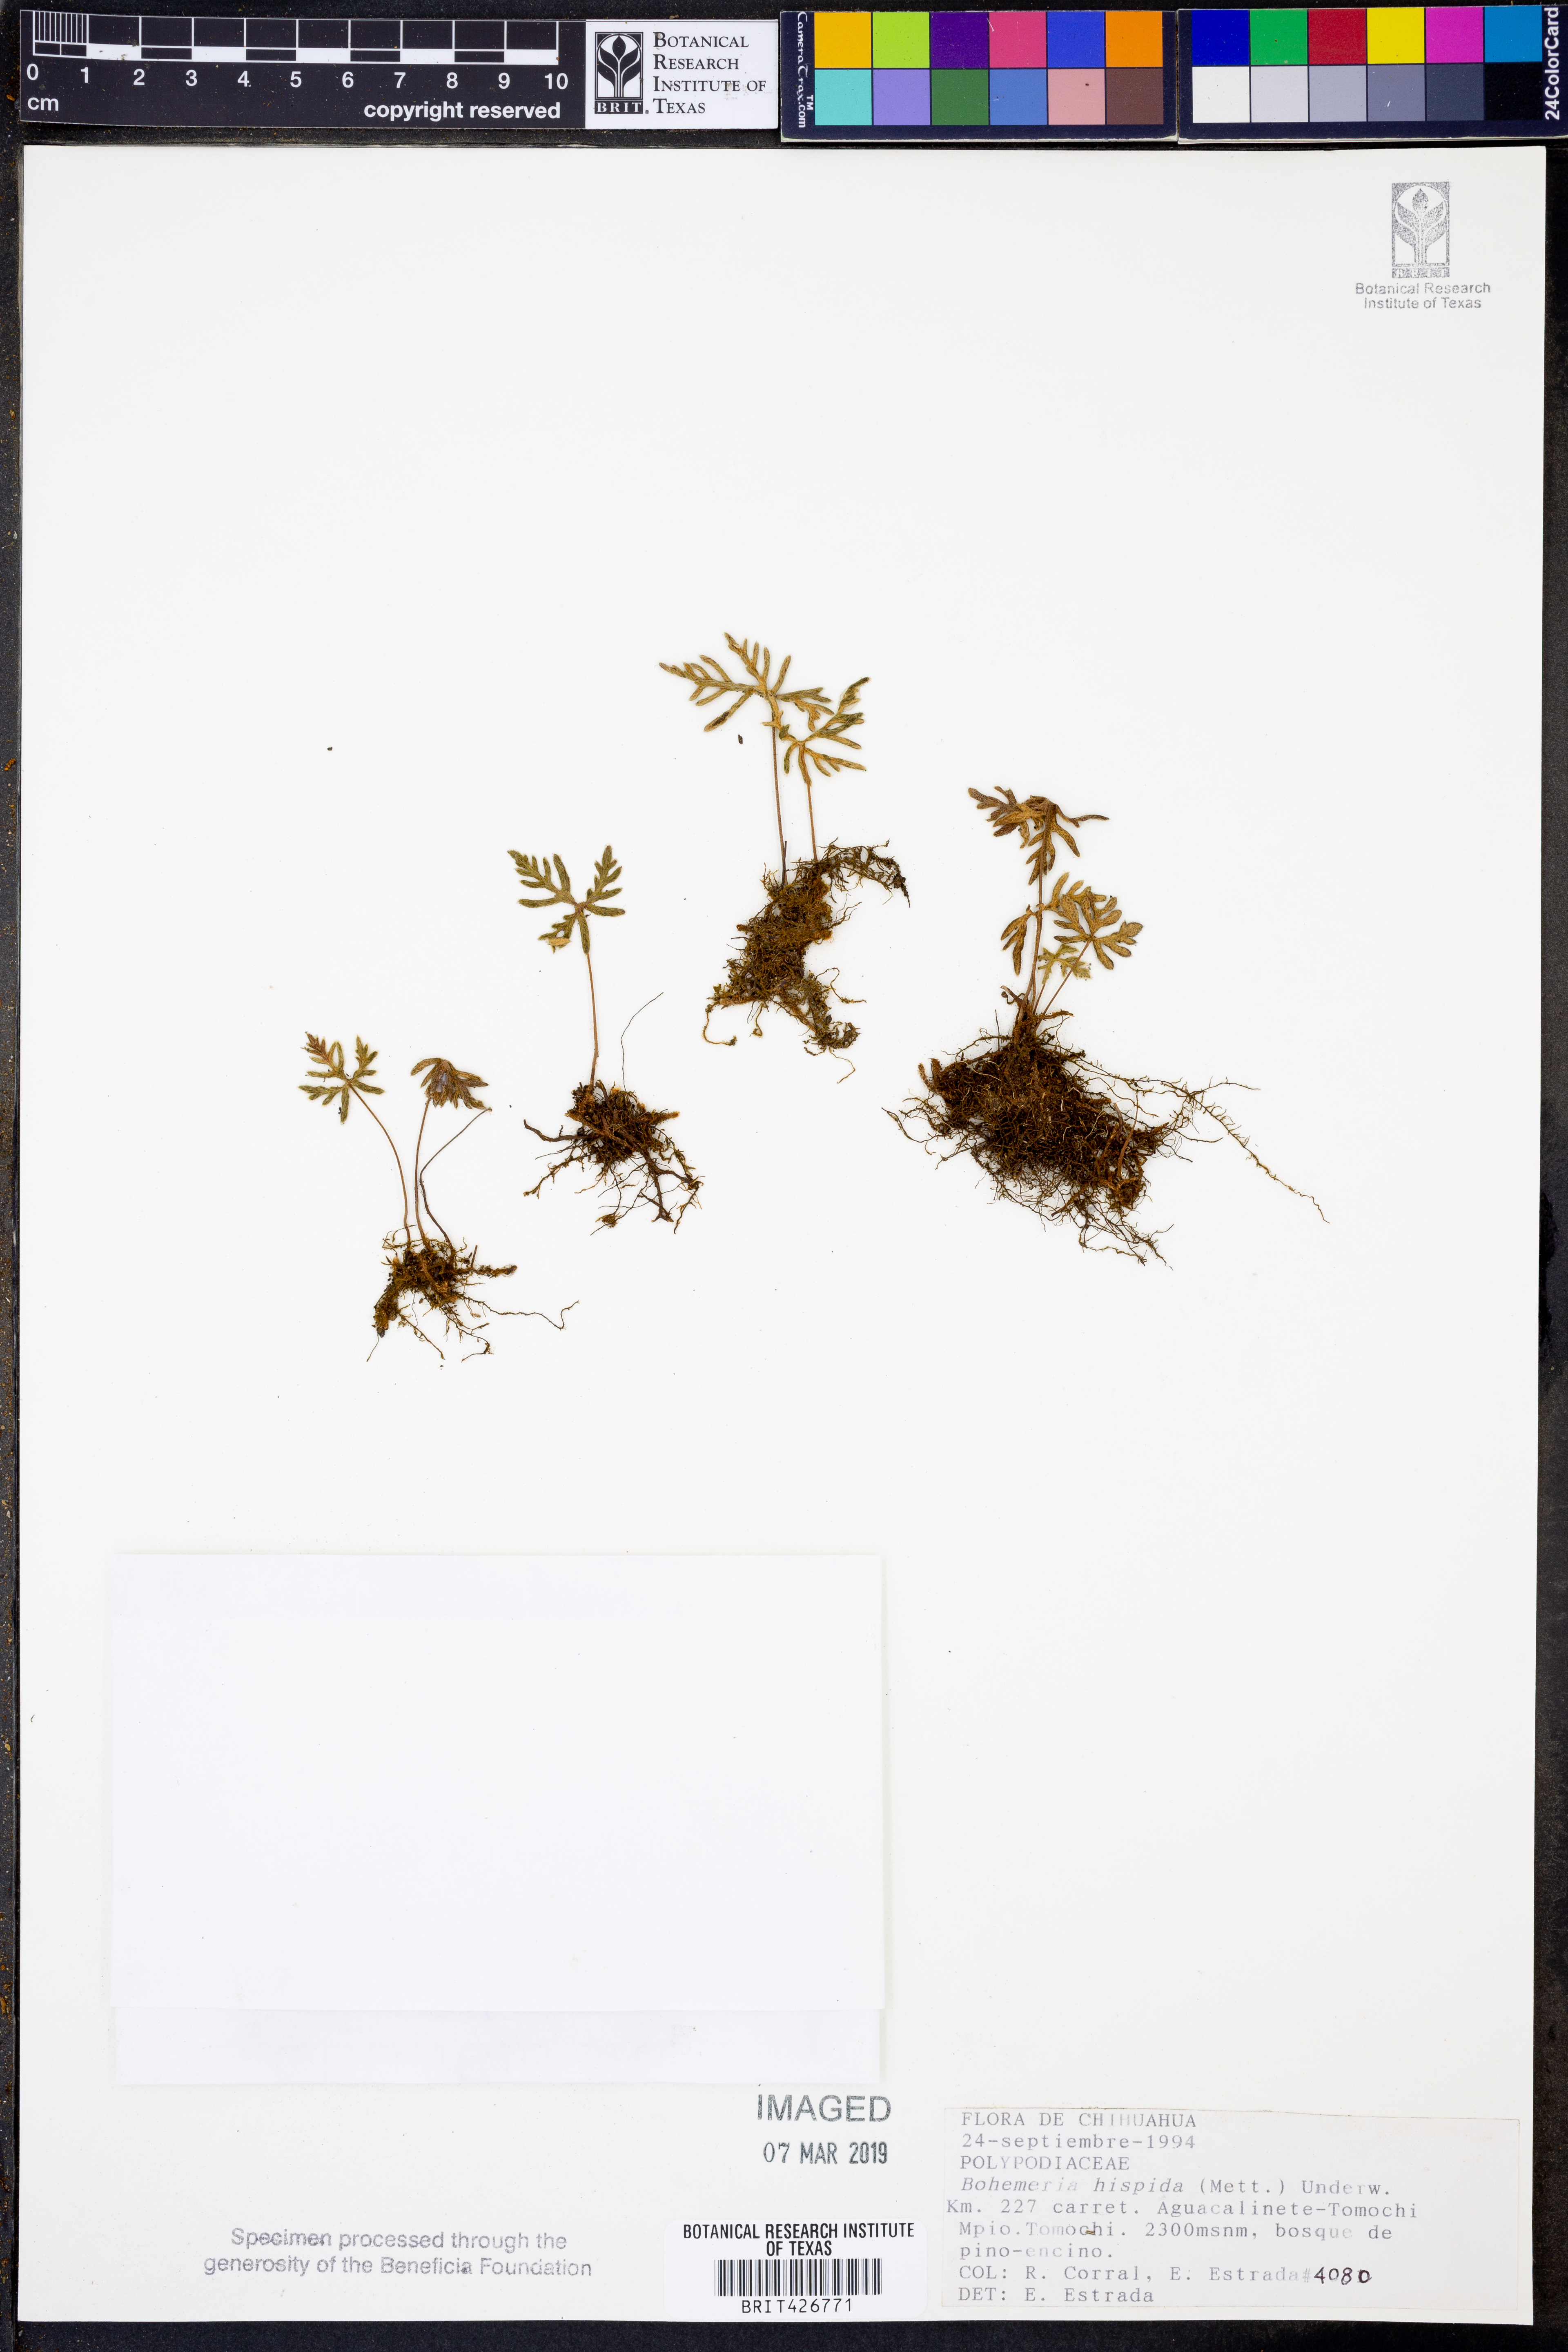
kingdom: Plantae
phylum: Tracheophyta
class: Polypodiopsida
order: Polypodiales
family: Pteridaceae
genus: Bommeria
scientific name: Bommeria hispida
